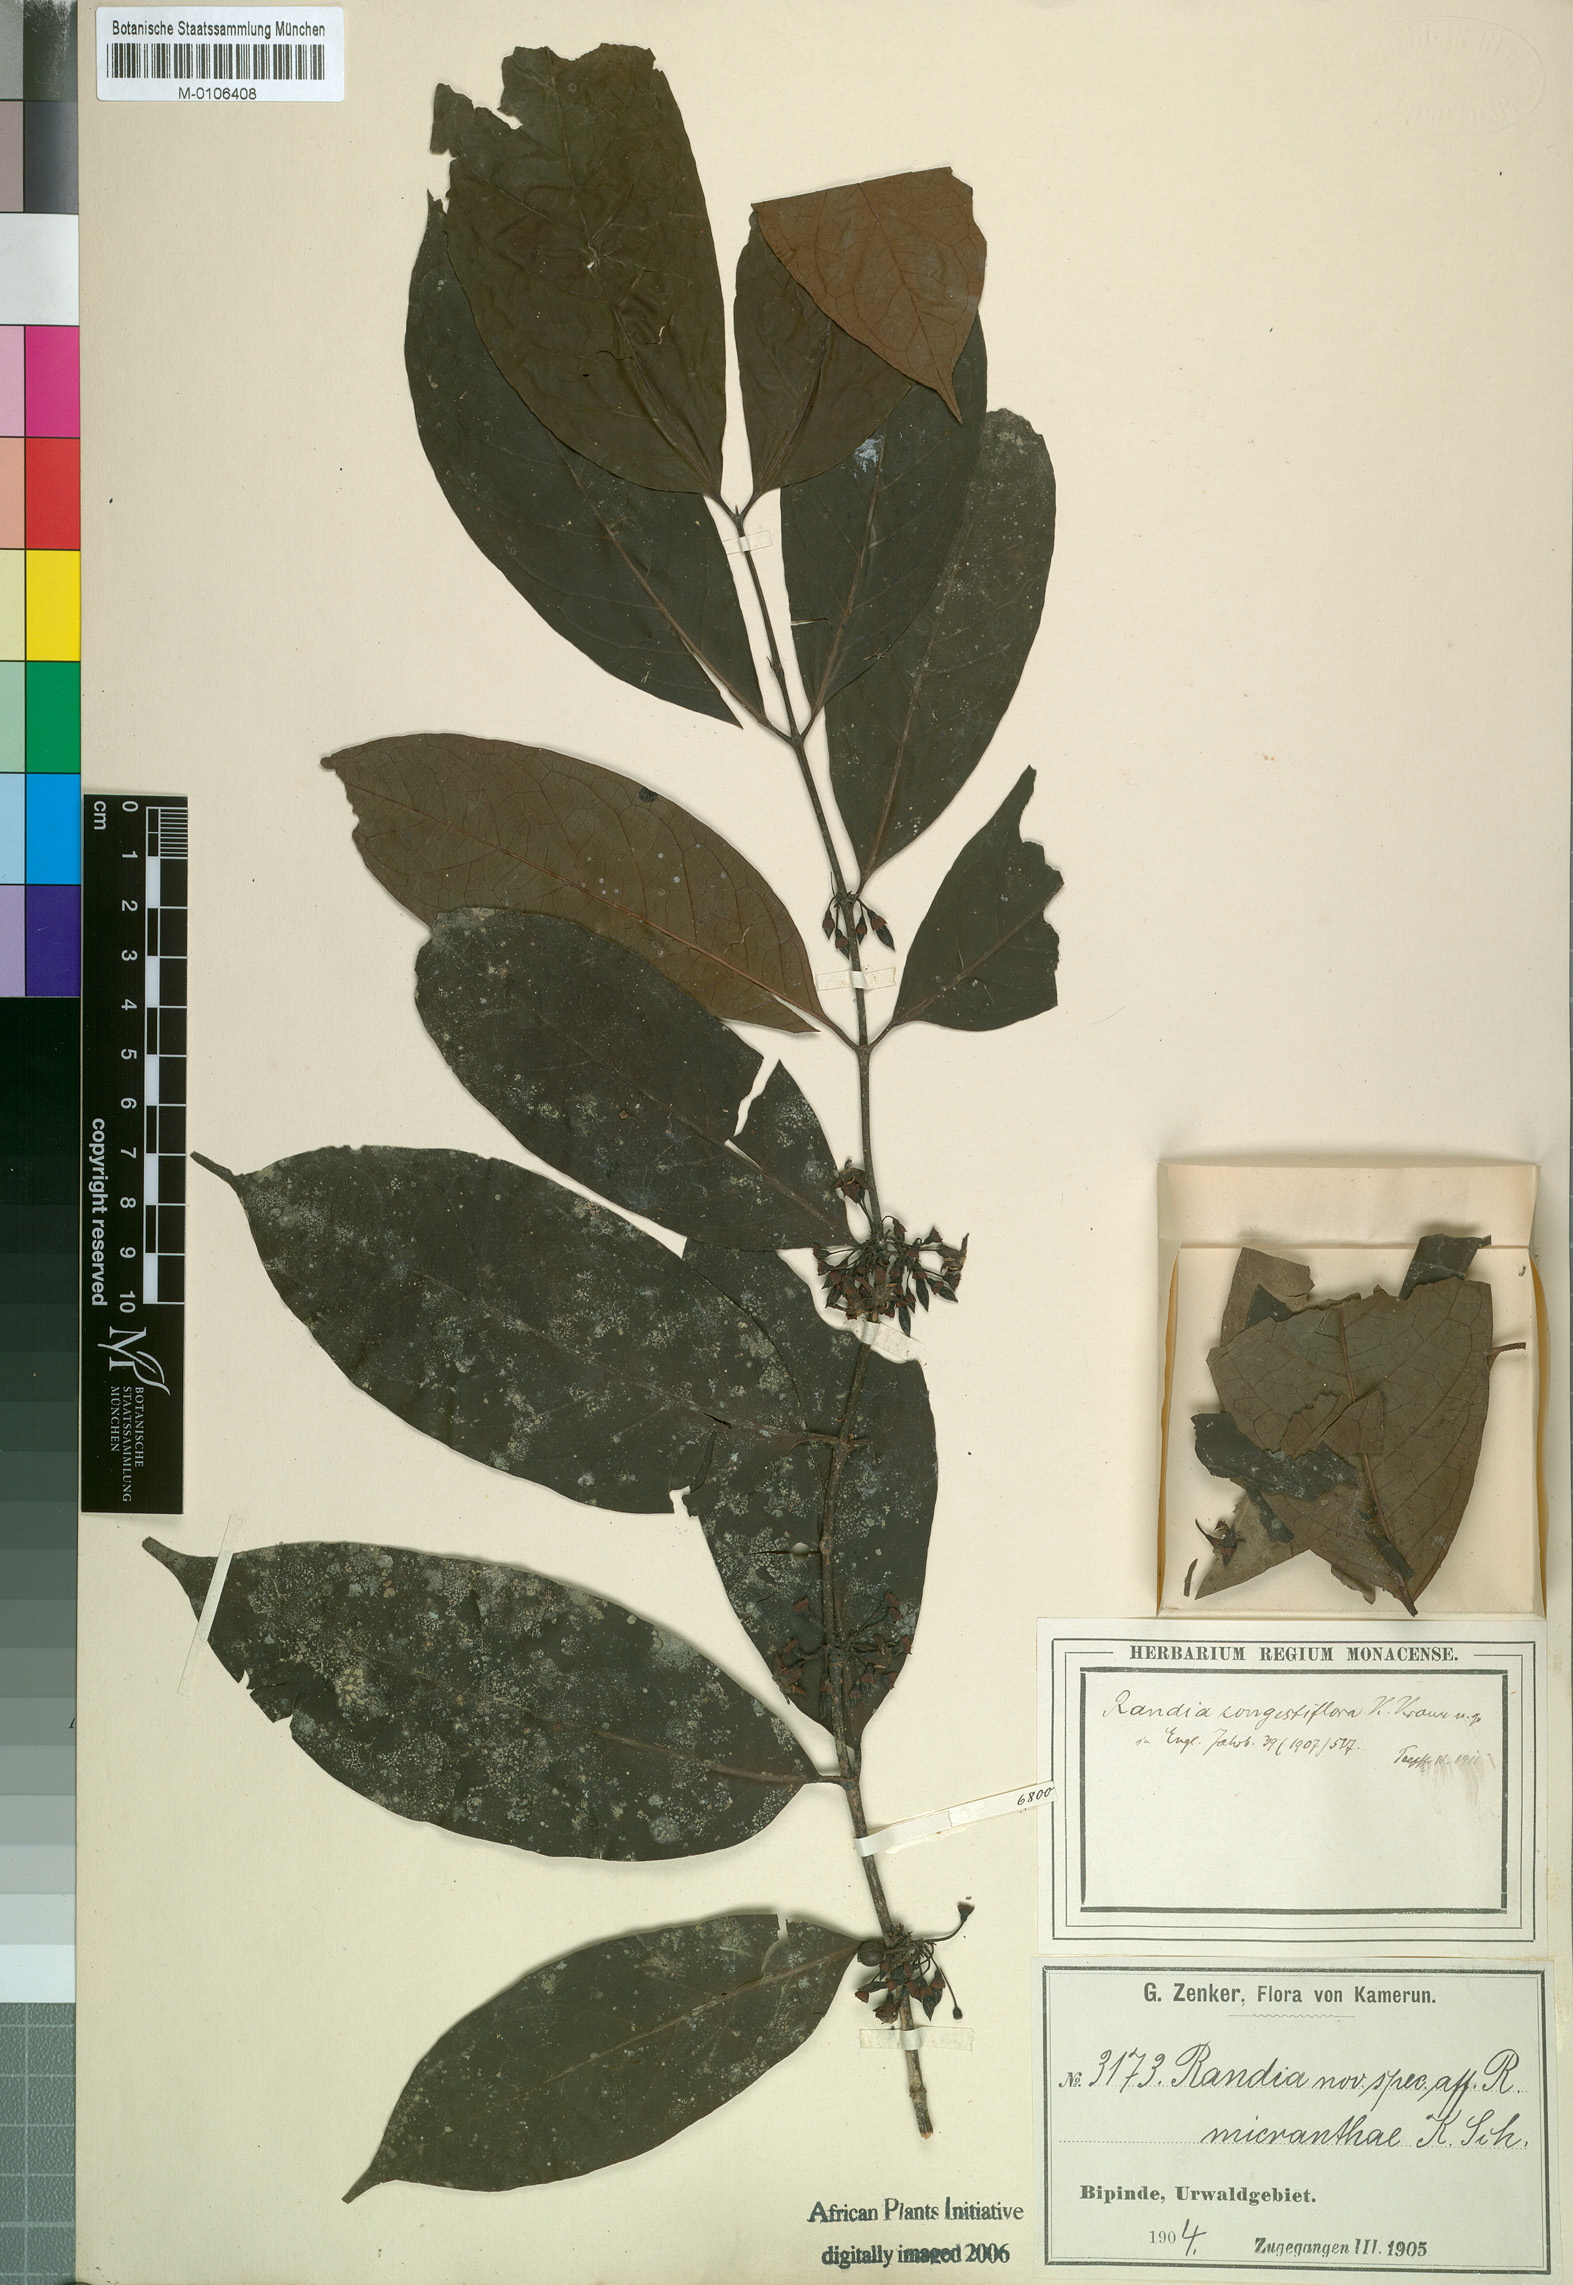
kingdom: Plantae
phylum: Tracheophyta
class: Magnoliopsida
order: Gentianales
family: Rubiaceae
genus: Aidia
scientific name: Aidia micrantha
